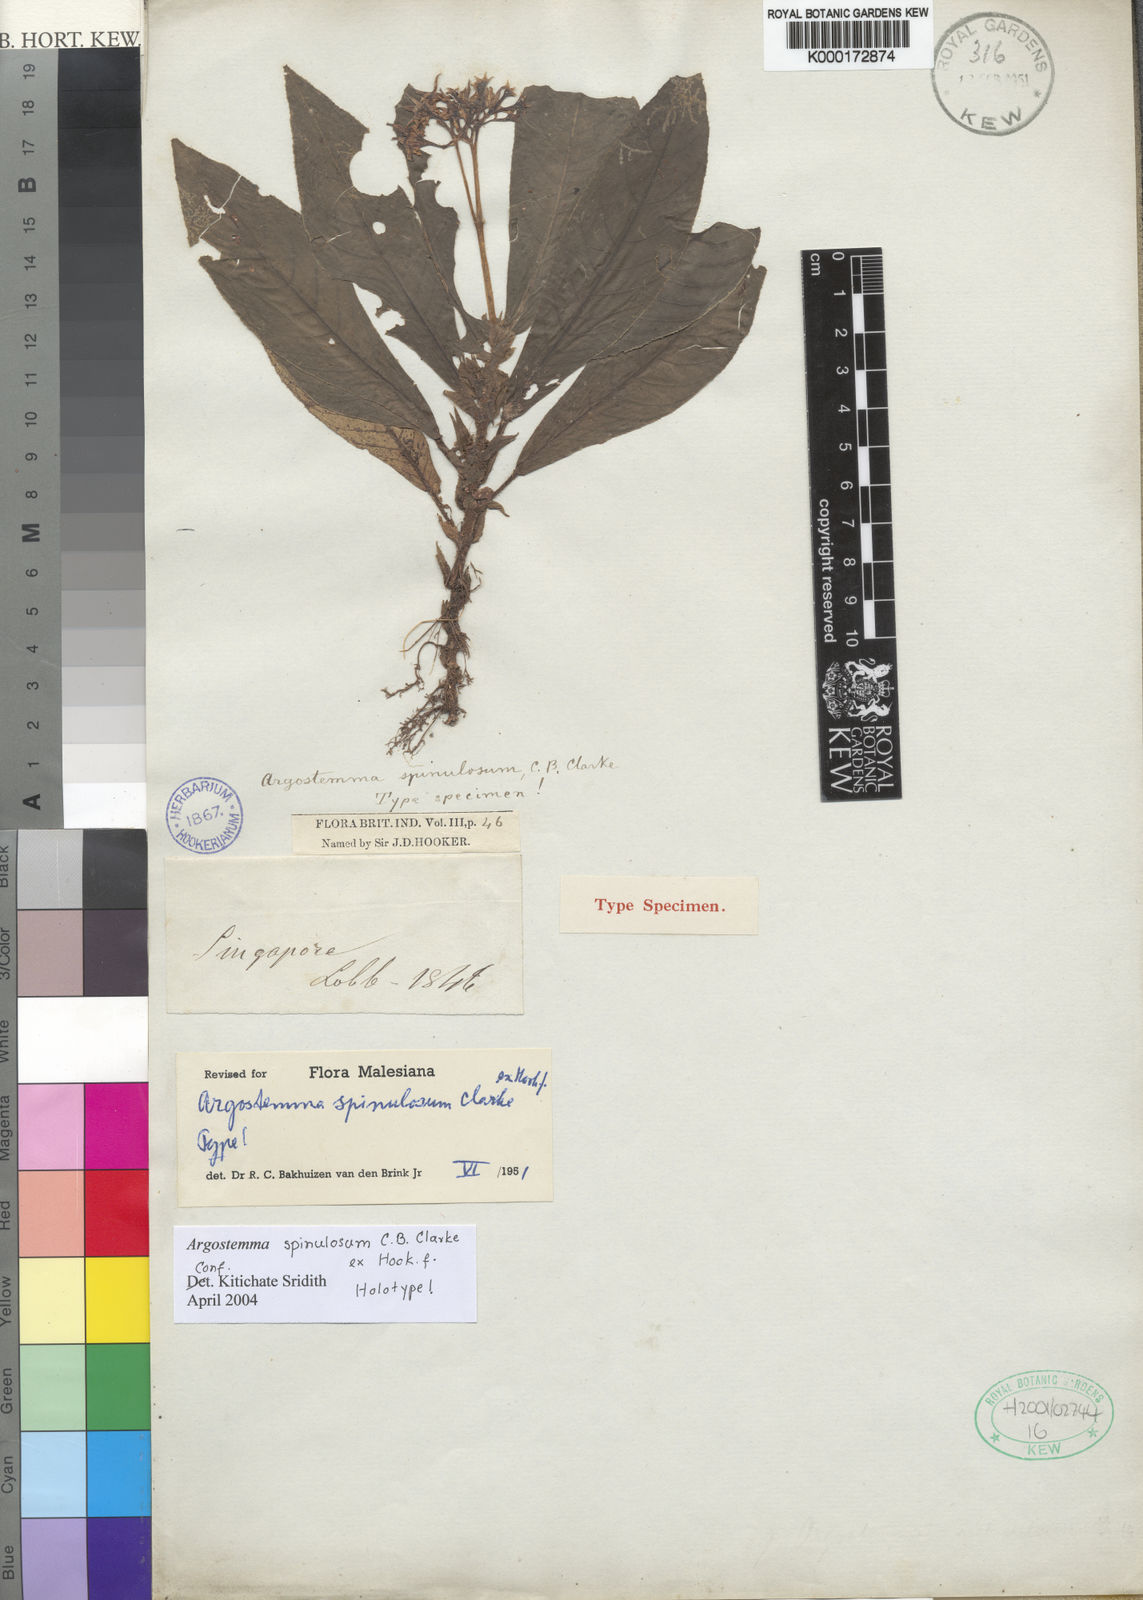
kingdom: Plantae
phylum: Tracheophyta
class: Magnoliopsida
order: Gentianales
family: Rubiaceae
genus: Argostemma
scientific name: Argostemma
